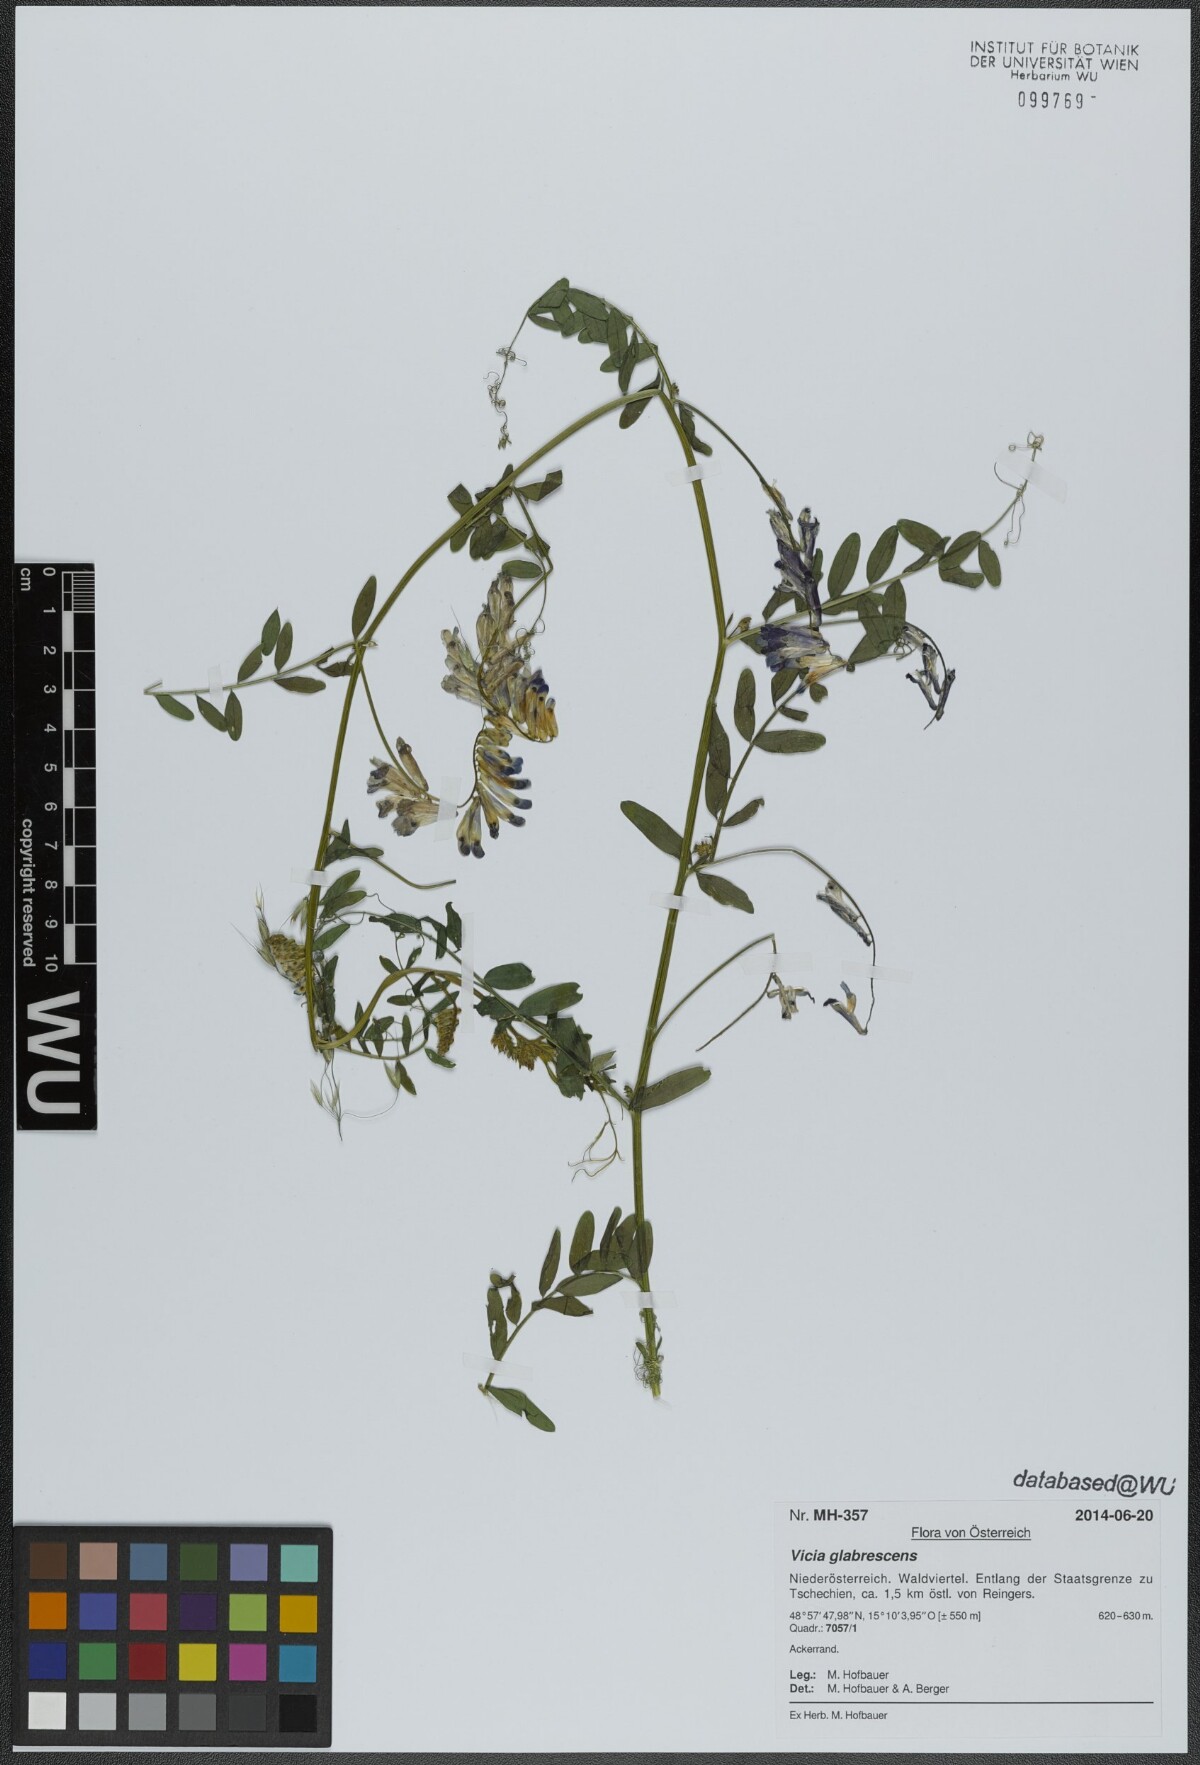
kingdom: Plantae
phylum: Tracheophyta
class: Magnoliopsida
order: Fabales
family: Fabaceae
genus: Vicia
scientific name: Vicia villosa
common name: Fodder vetch
